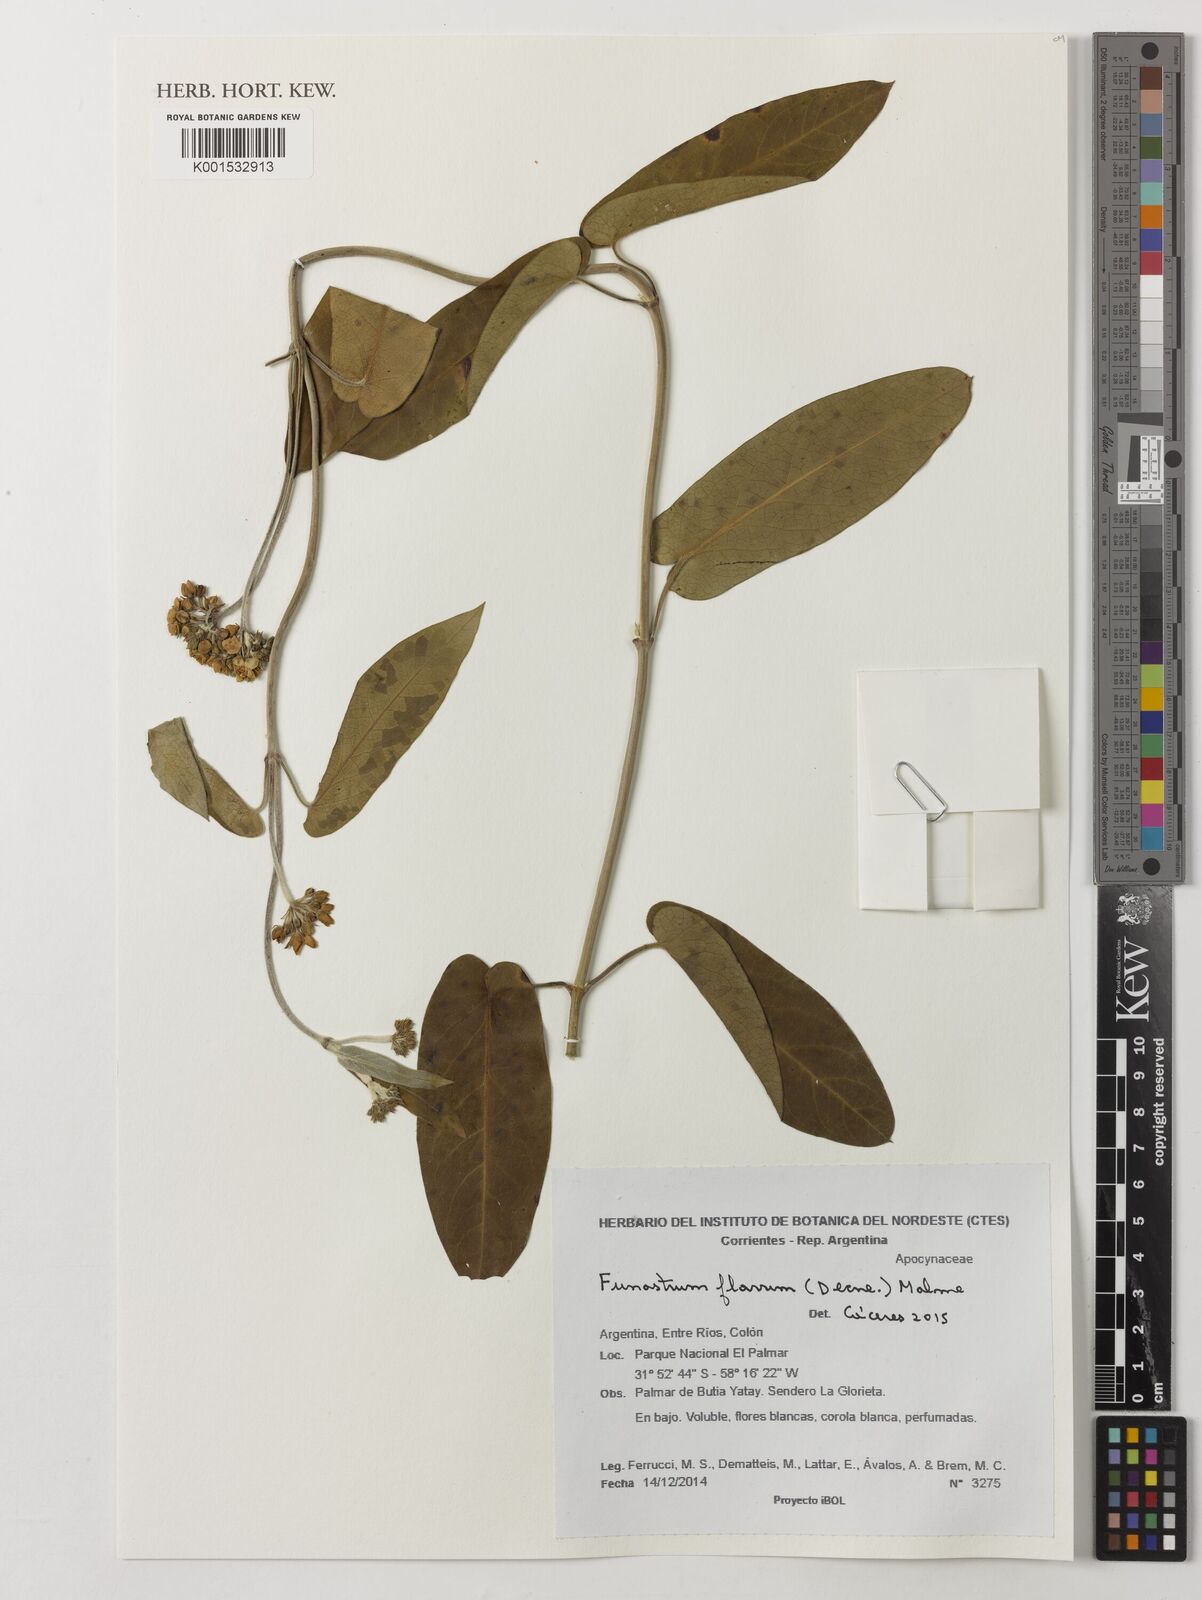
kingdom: Plantae
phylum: Tracheophyta
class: Magnoliopsida
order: Gentianales
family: Apocynaceae
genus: Funastrum
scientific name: Funastrum flavum
